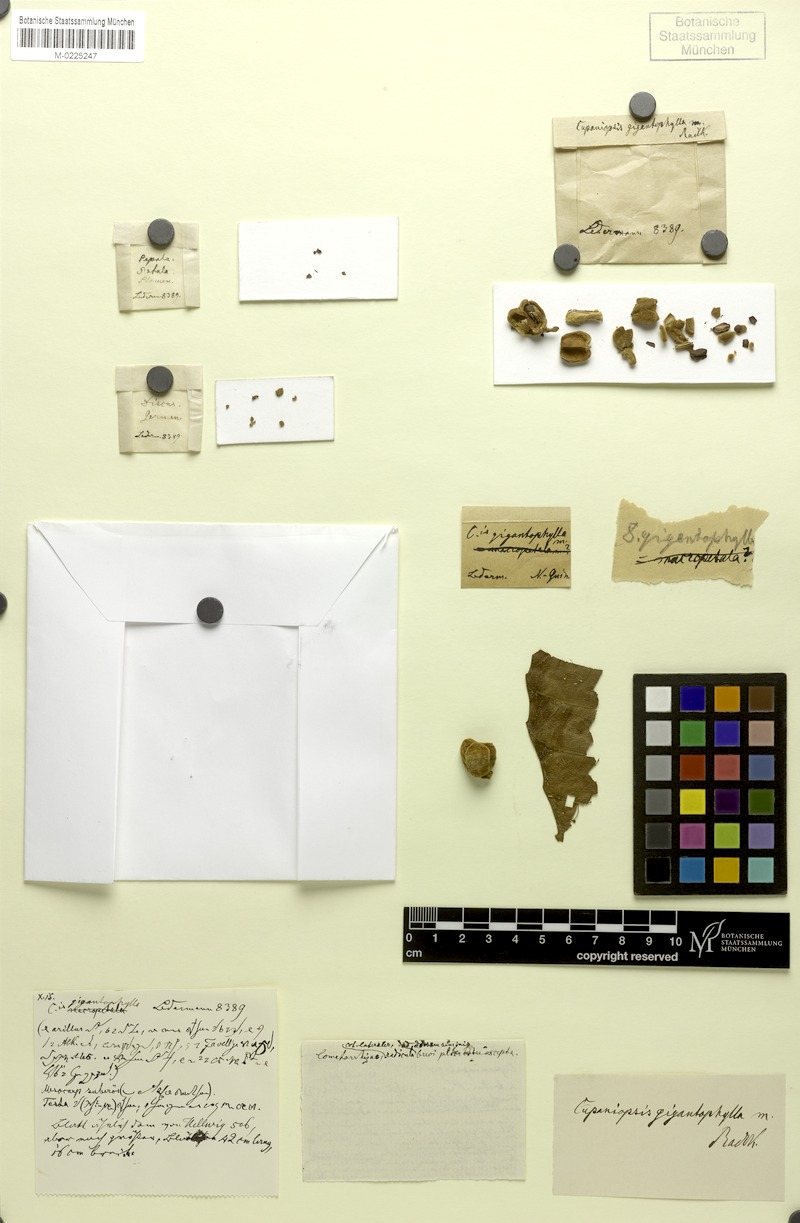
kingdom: Plantae
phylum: Tracheophyta
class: Magnoliopsida
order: Sapindales
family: Sapindaceae
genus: Cupaniopsis
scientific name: Cupaniopsis curvidens
